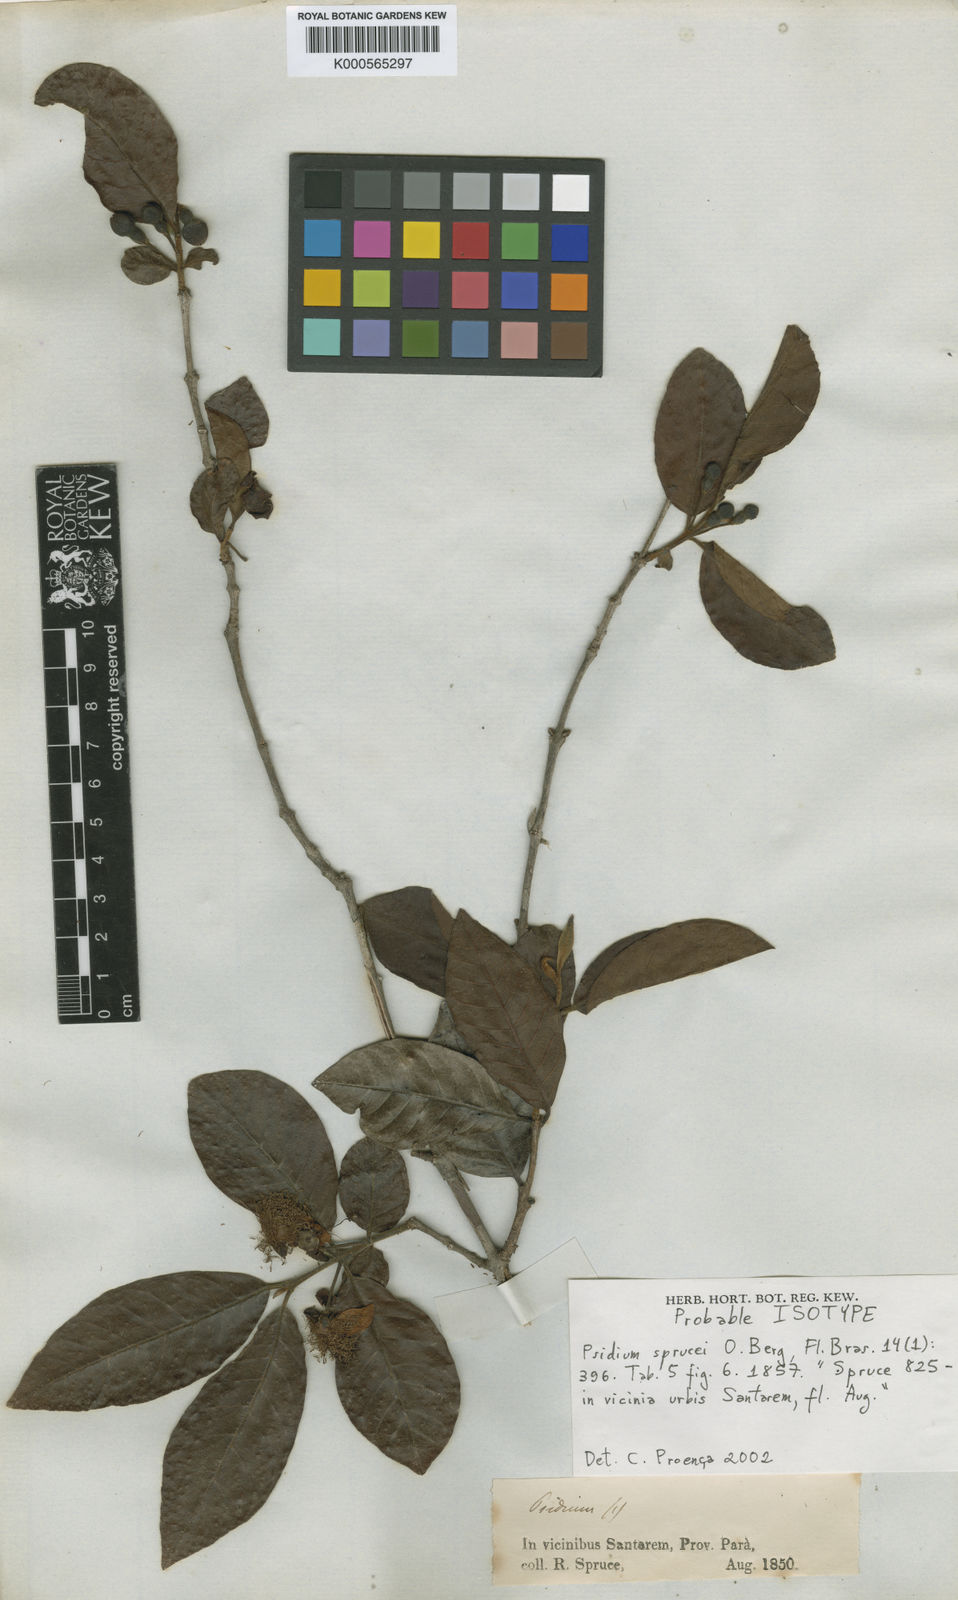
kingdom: Plantae
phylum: Tracheophyta
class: Magnoliopsida
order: Myrtales
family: Myrtaceae
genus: Psidium
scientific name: Psidium guyanense
